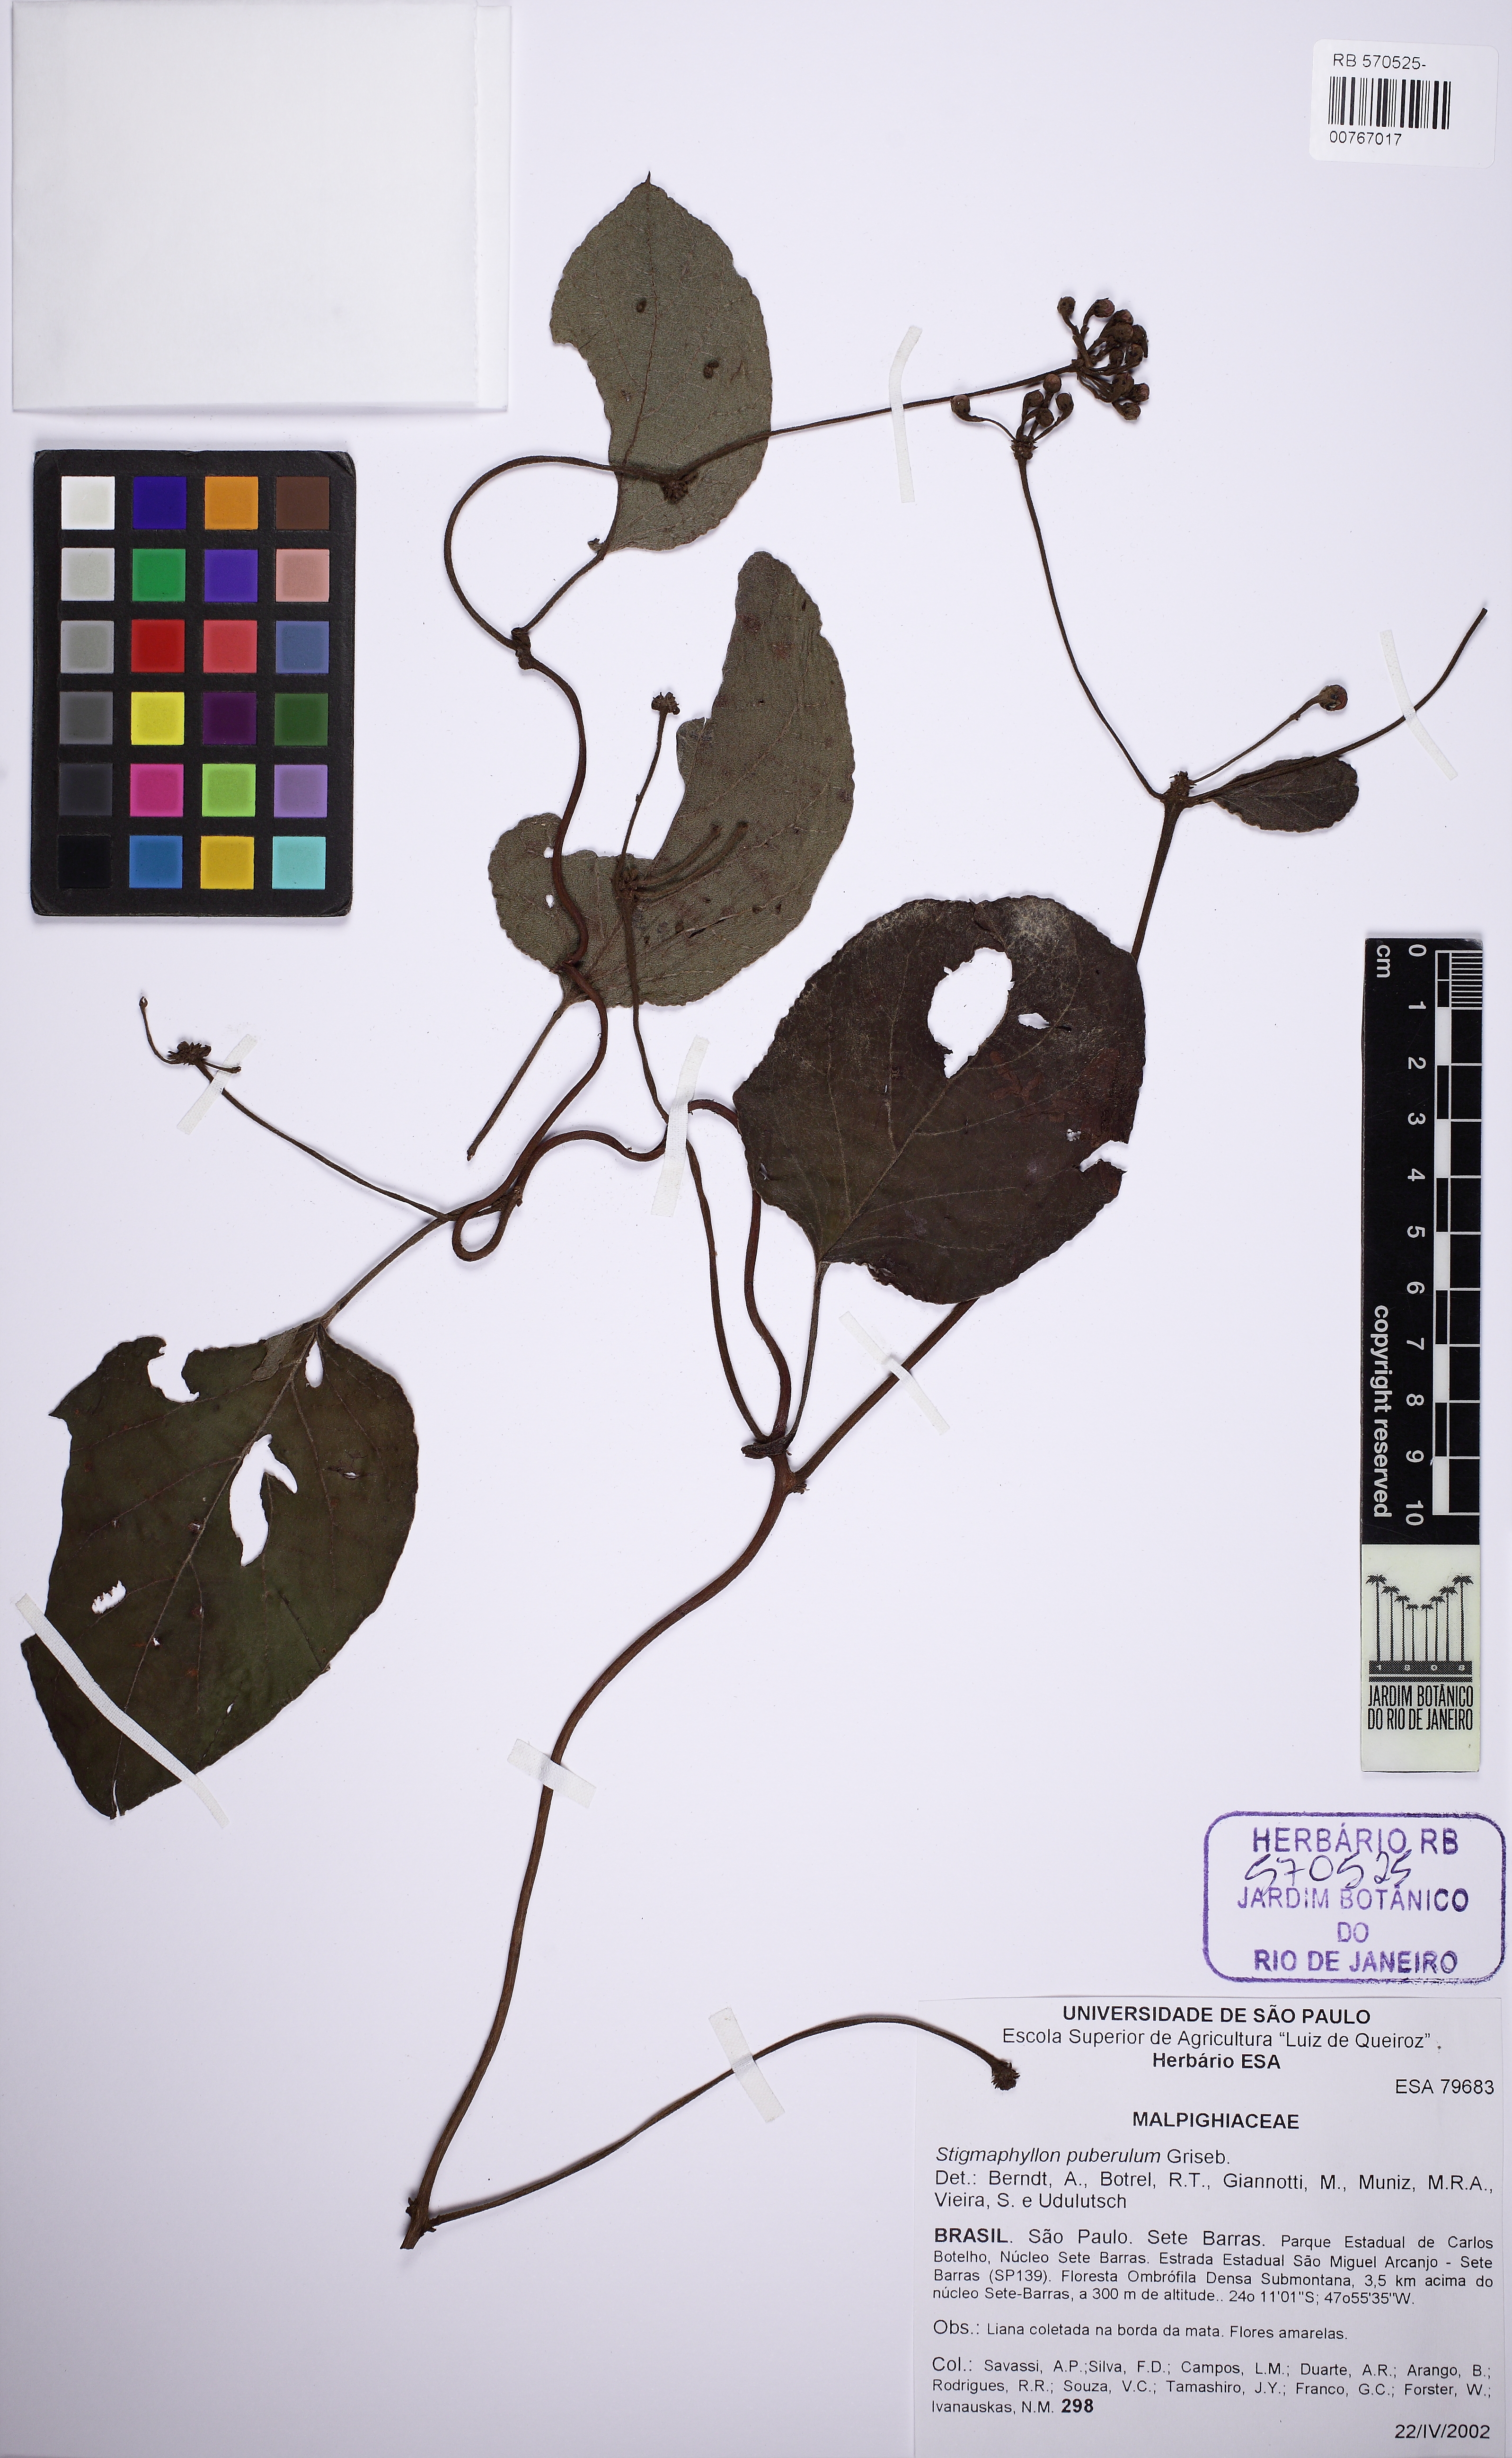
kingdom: Plantae
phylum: Tracheophyta
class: Magnoliopsida
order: Malpighiales
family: Malpighiaceae
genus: Stigmaphyllon
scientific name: Stigmaphyllon puberulum
